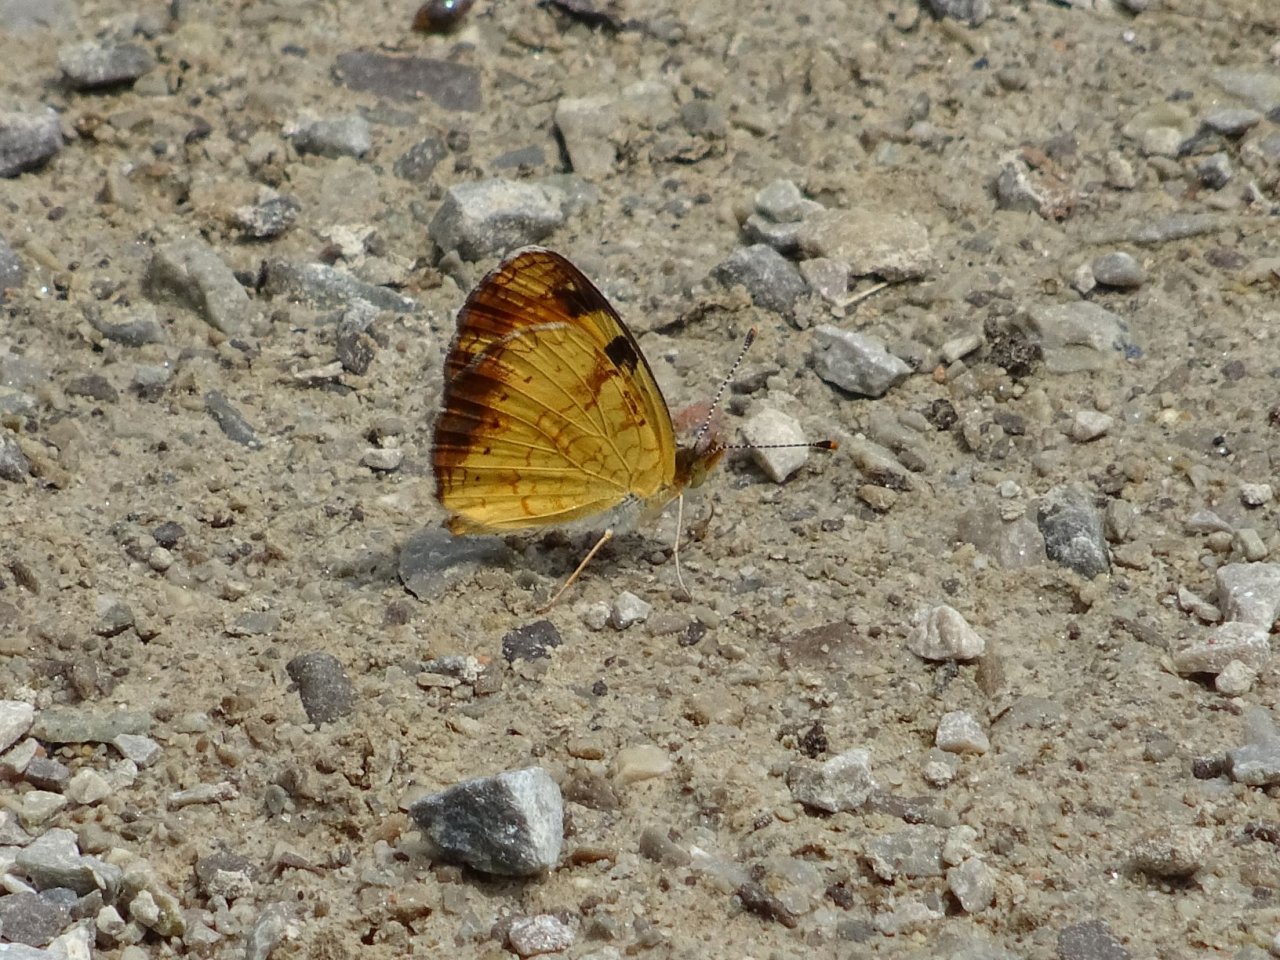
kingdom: Animalia
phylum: Arthropoda
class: Insecta
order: Lepidoptera
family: Nymphalidae
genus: Phyciodes
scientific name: Phyciodes tharos
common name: Northern Crescent
